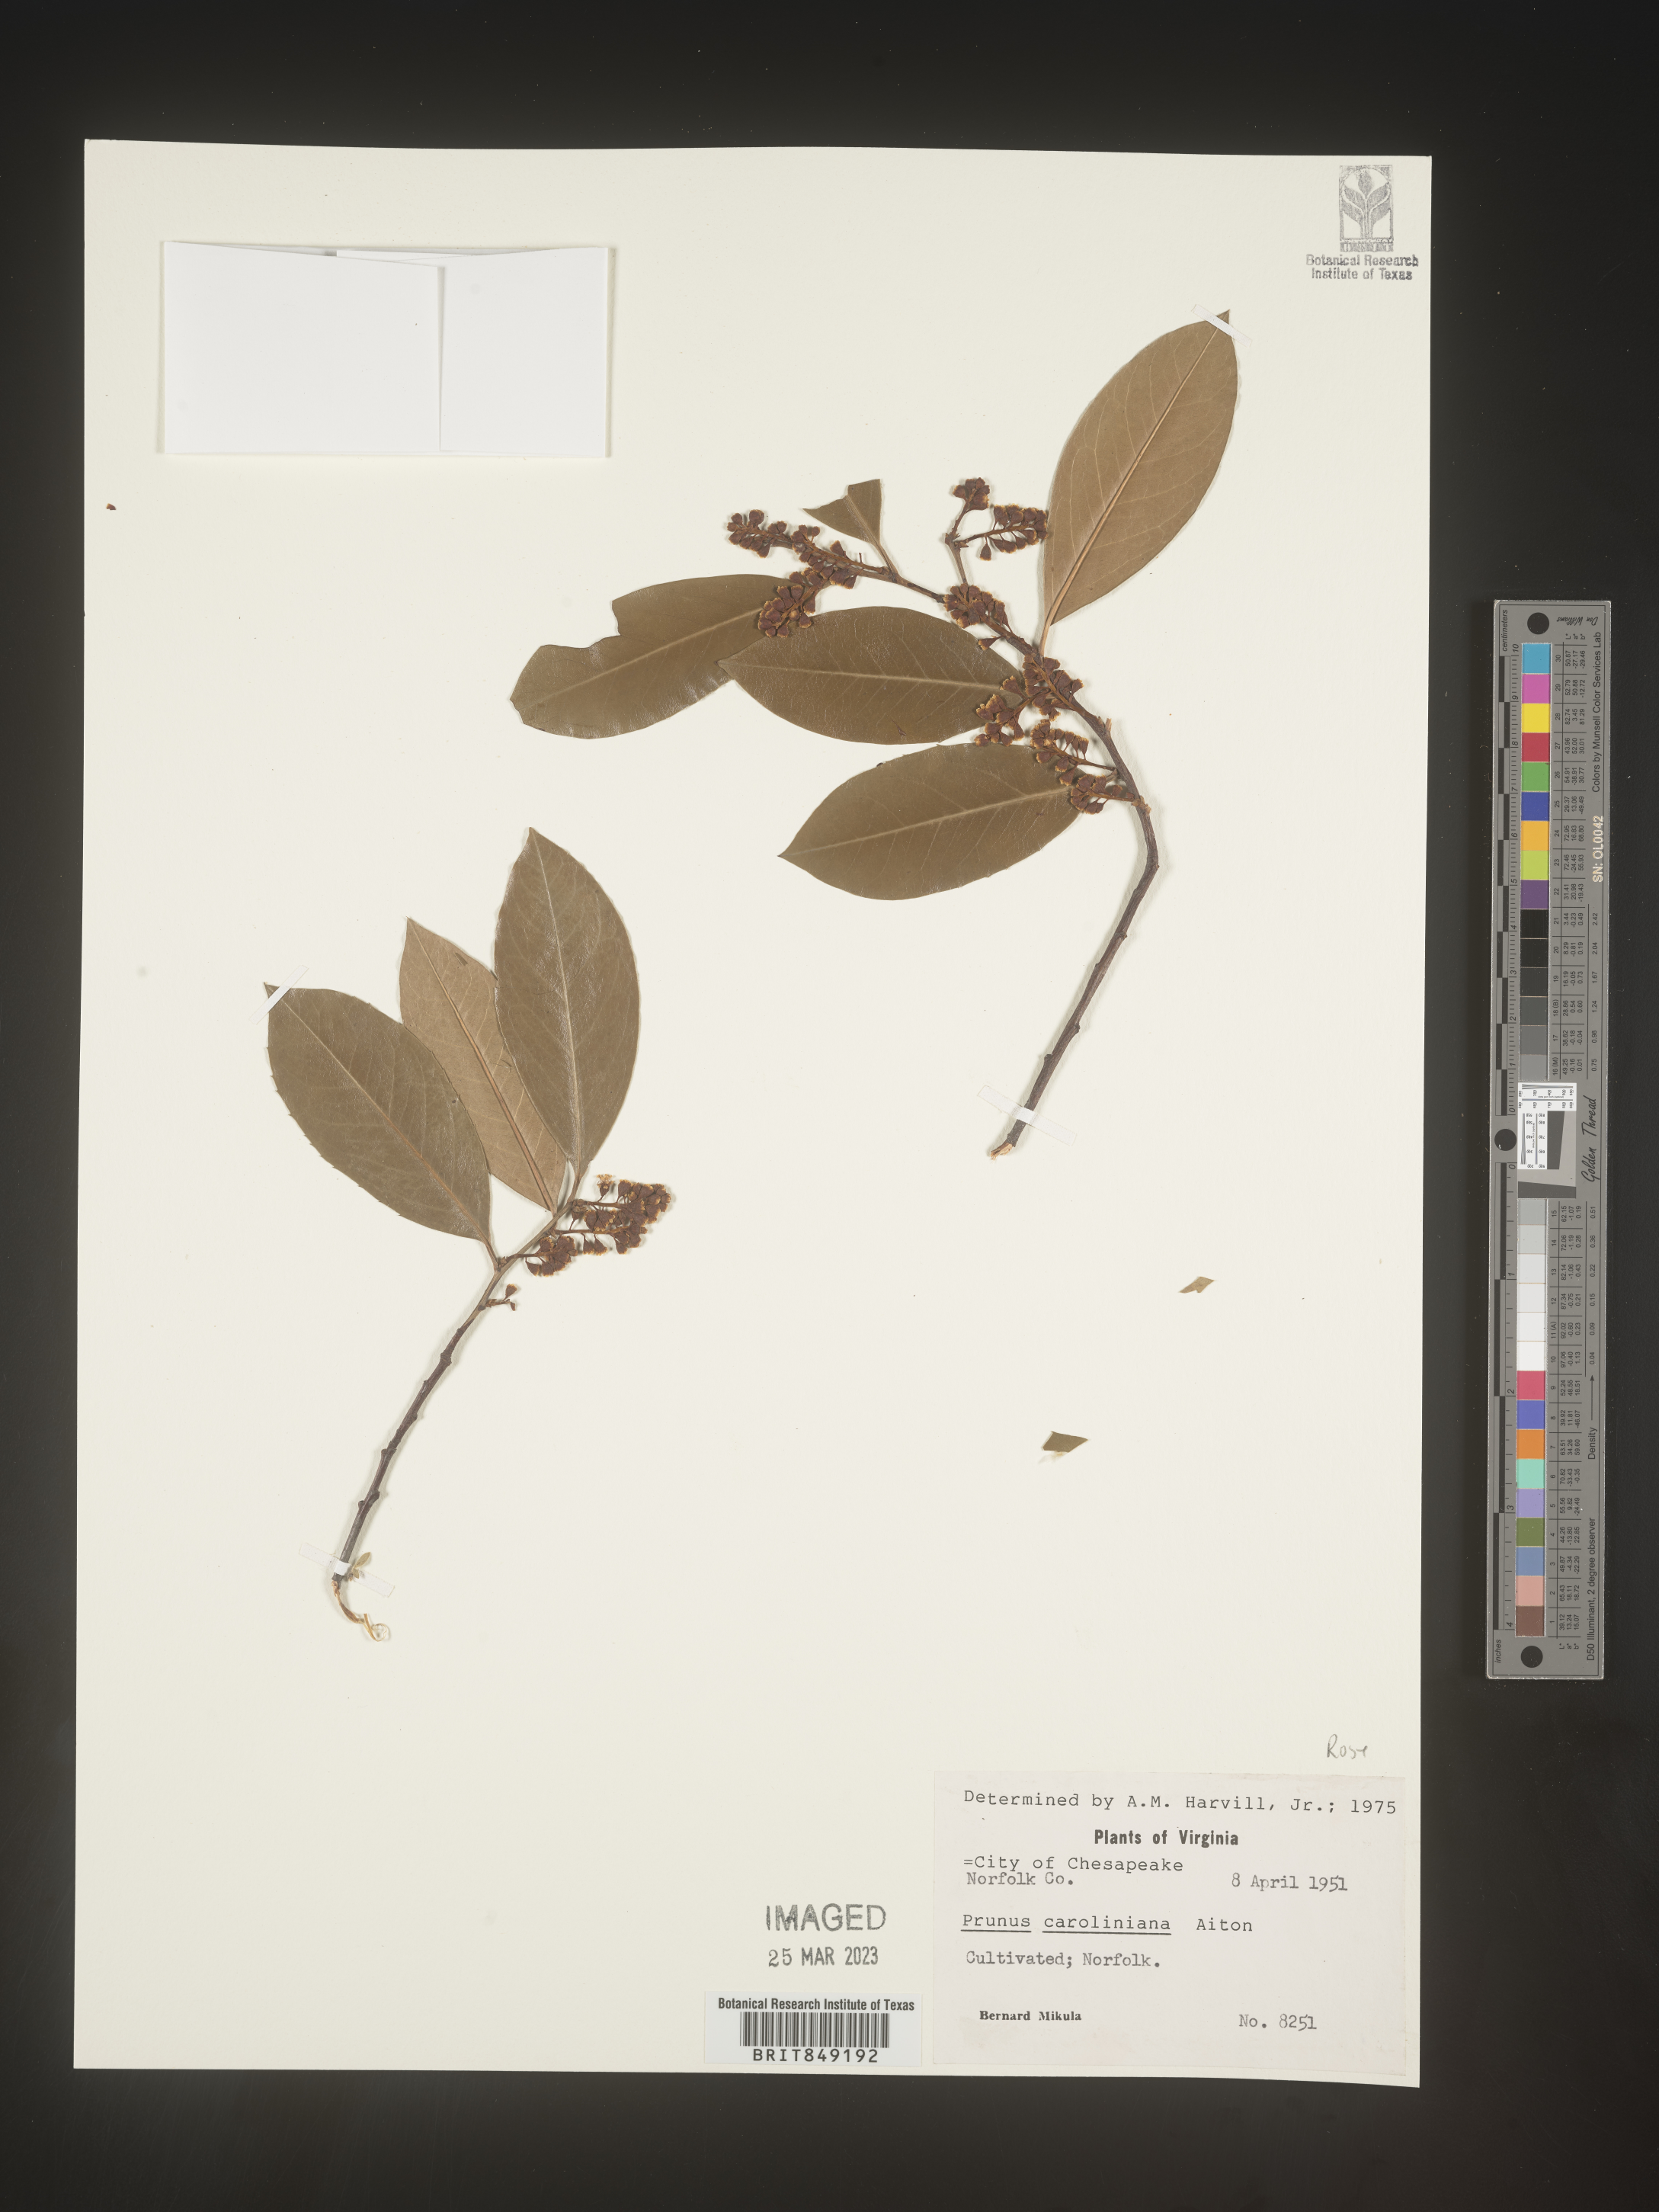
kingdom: Plantae
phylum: Tracheophyta
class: Magnoliopsida
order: Rosales
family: Rosaceae
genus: Prunus
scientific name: Prunus
